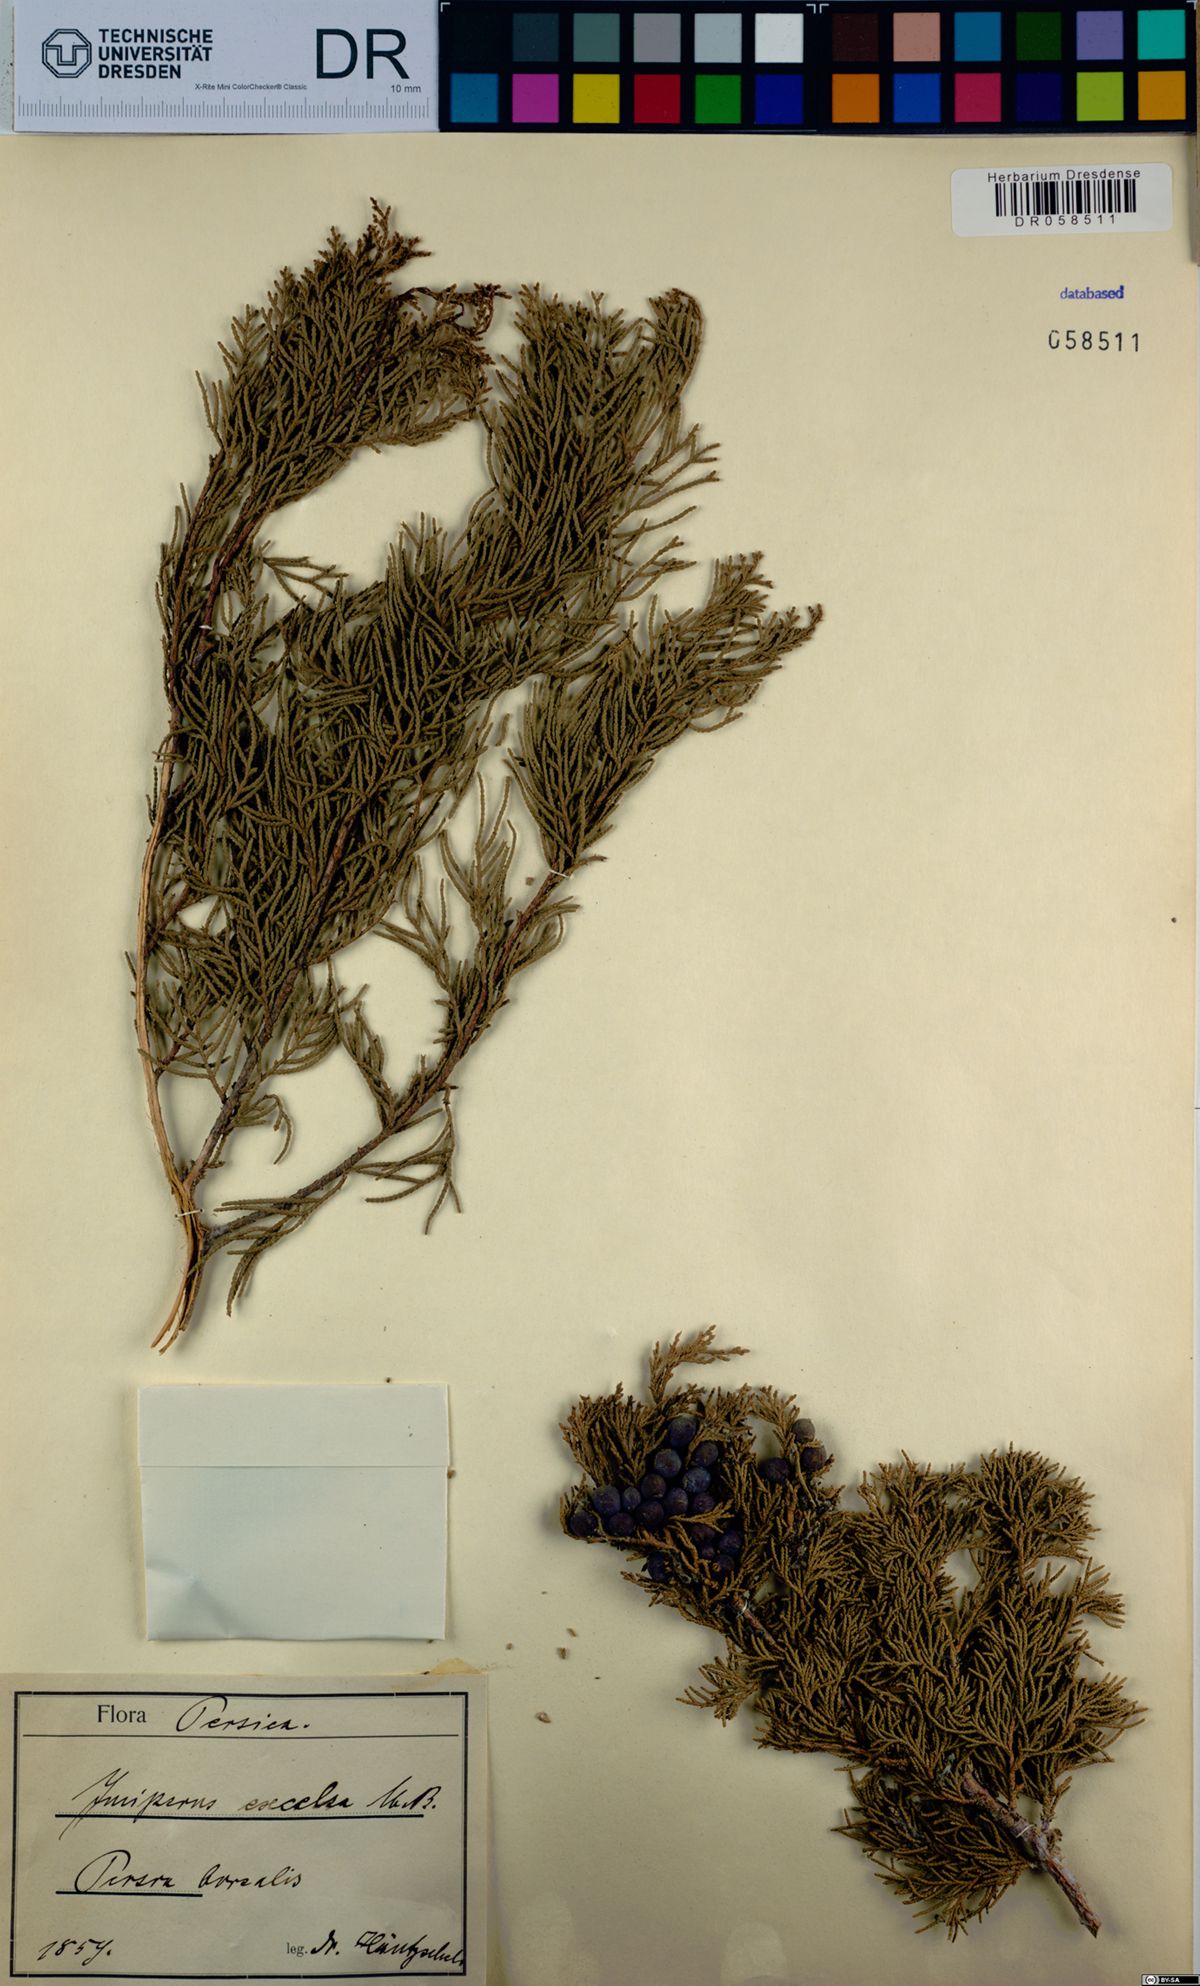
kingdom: Plantae
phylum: Tracheophyta
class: Pinopsida
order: Pinales
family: Cupressaceae
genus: Juniperus
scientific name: Juniperus excelsa
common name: Crimean juniper
